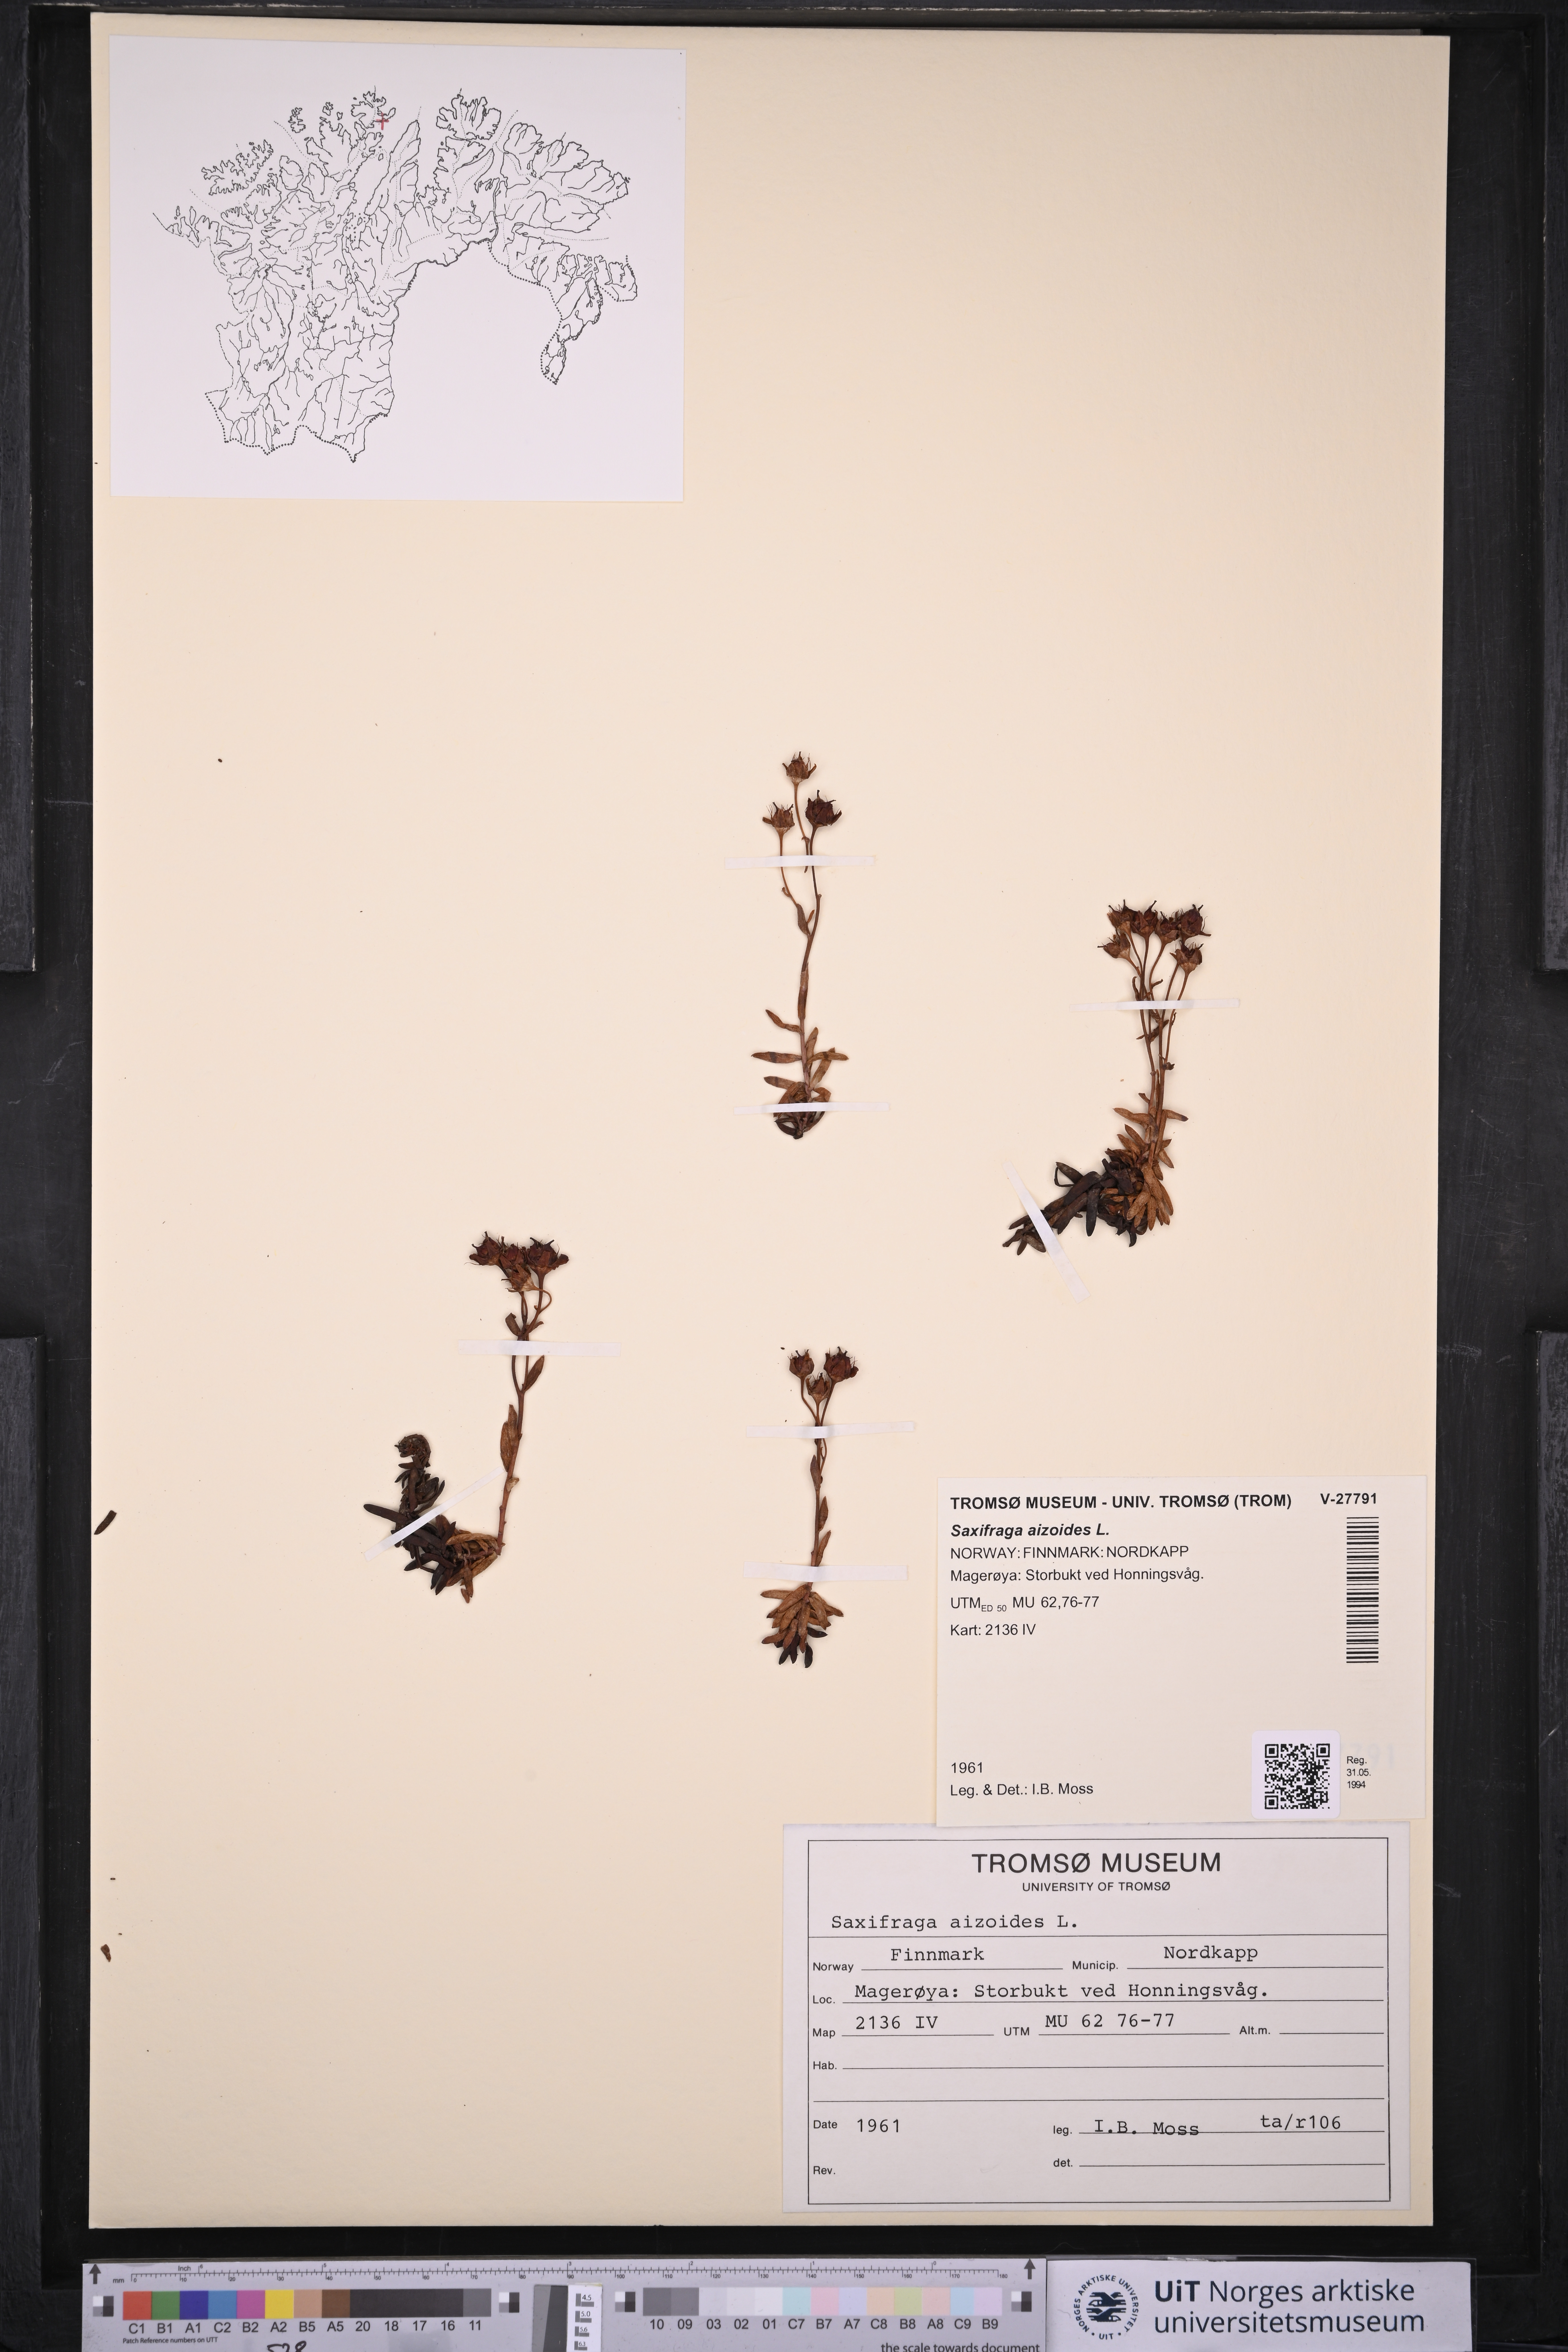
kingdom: Plantae
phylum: Tracheophyta
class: Magnoliopsida
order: Saxifragales
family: Saxifragaceae
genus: Saxifraga
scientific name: Saxifraga aizoides
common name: Yellow mountain saxifrage
